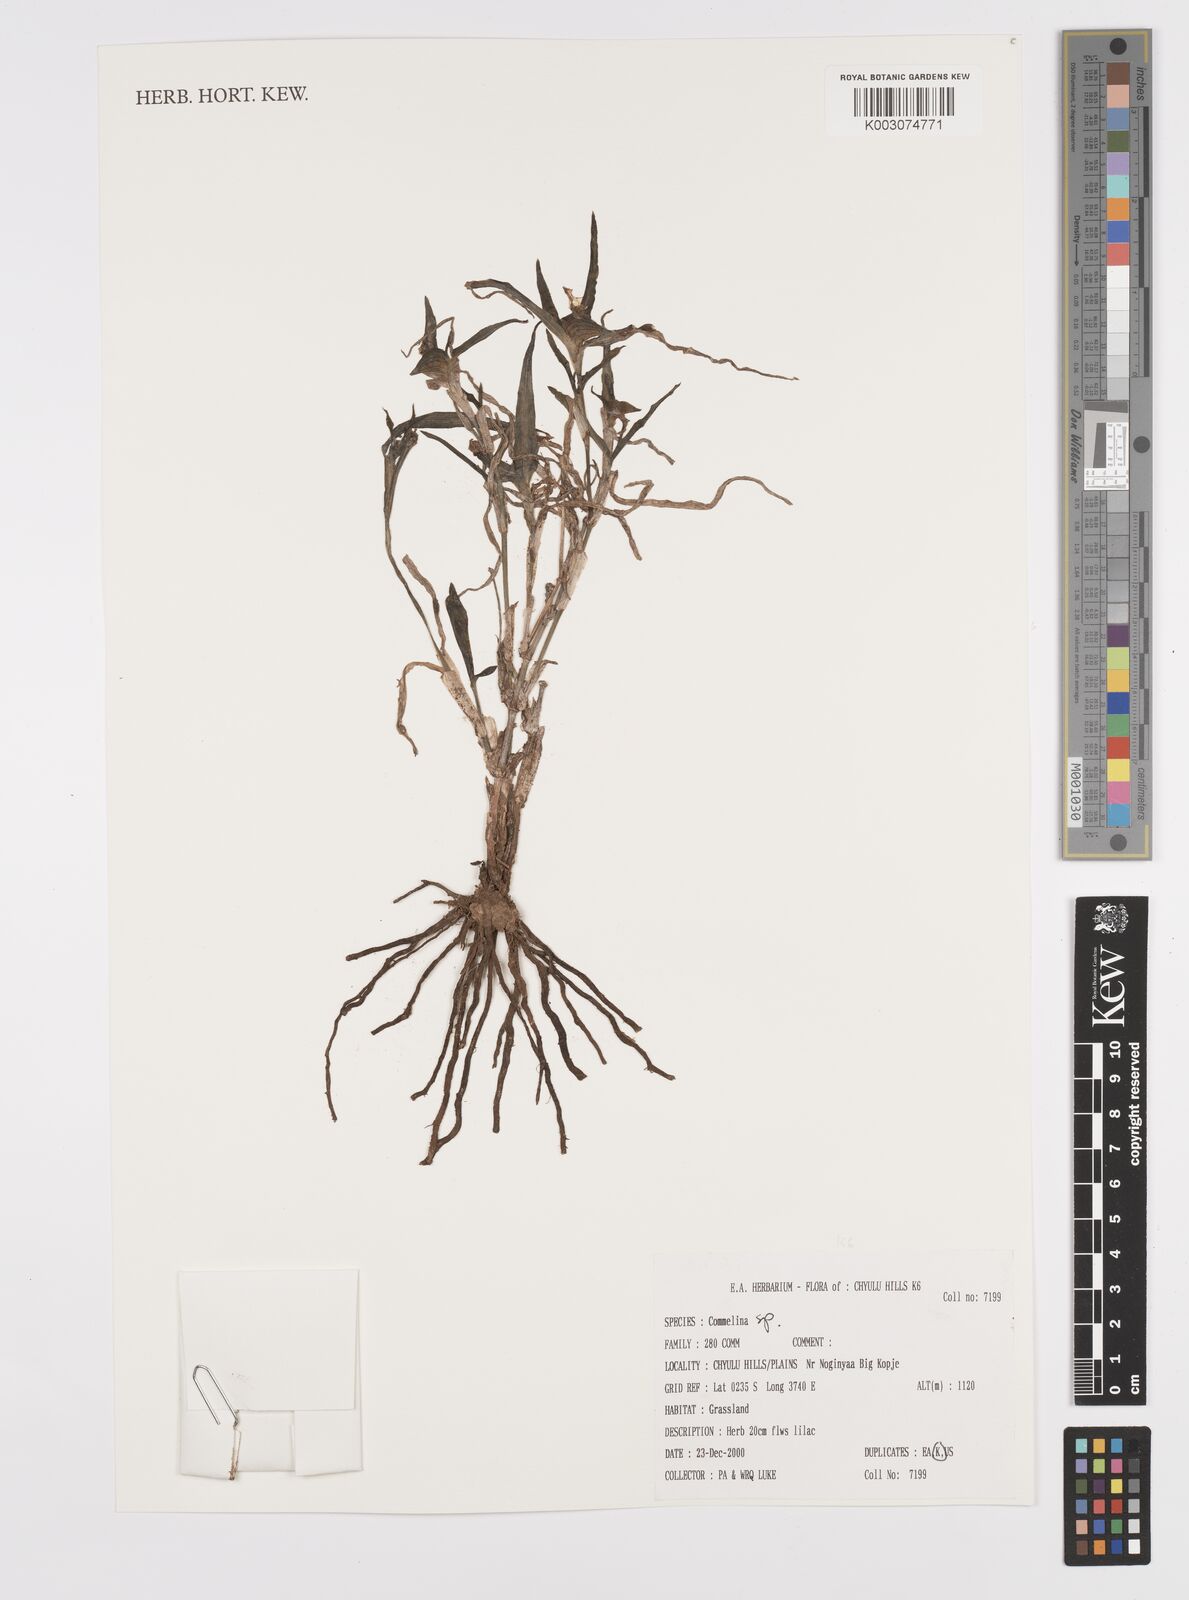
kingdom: Plantae
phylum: Tracheophyta
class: Liliopsida
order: Commelinales
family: Commelinaceae
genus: Commelina
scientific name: Commelina albescens
